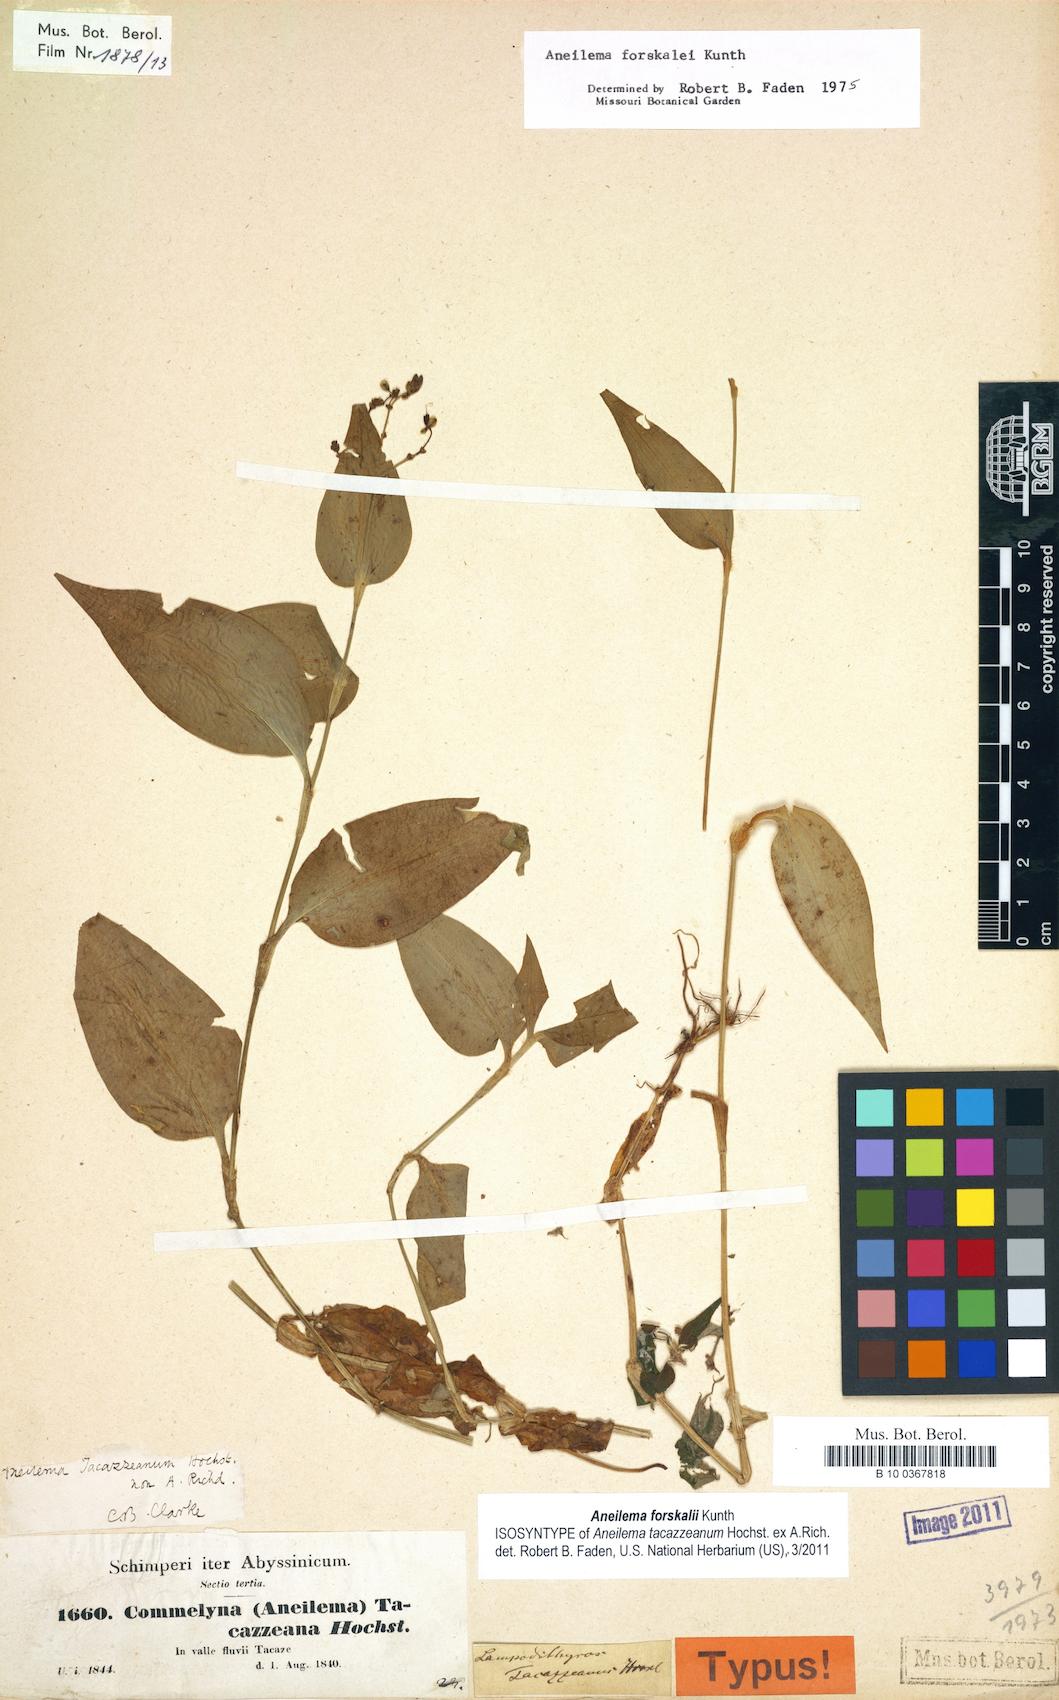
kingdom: Plantae
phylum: Tracheophyta
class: Liliopsida
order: Commelinales
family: Commelinaceae
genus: Aneilema
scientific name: Aneilema forskalii
